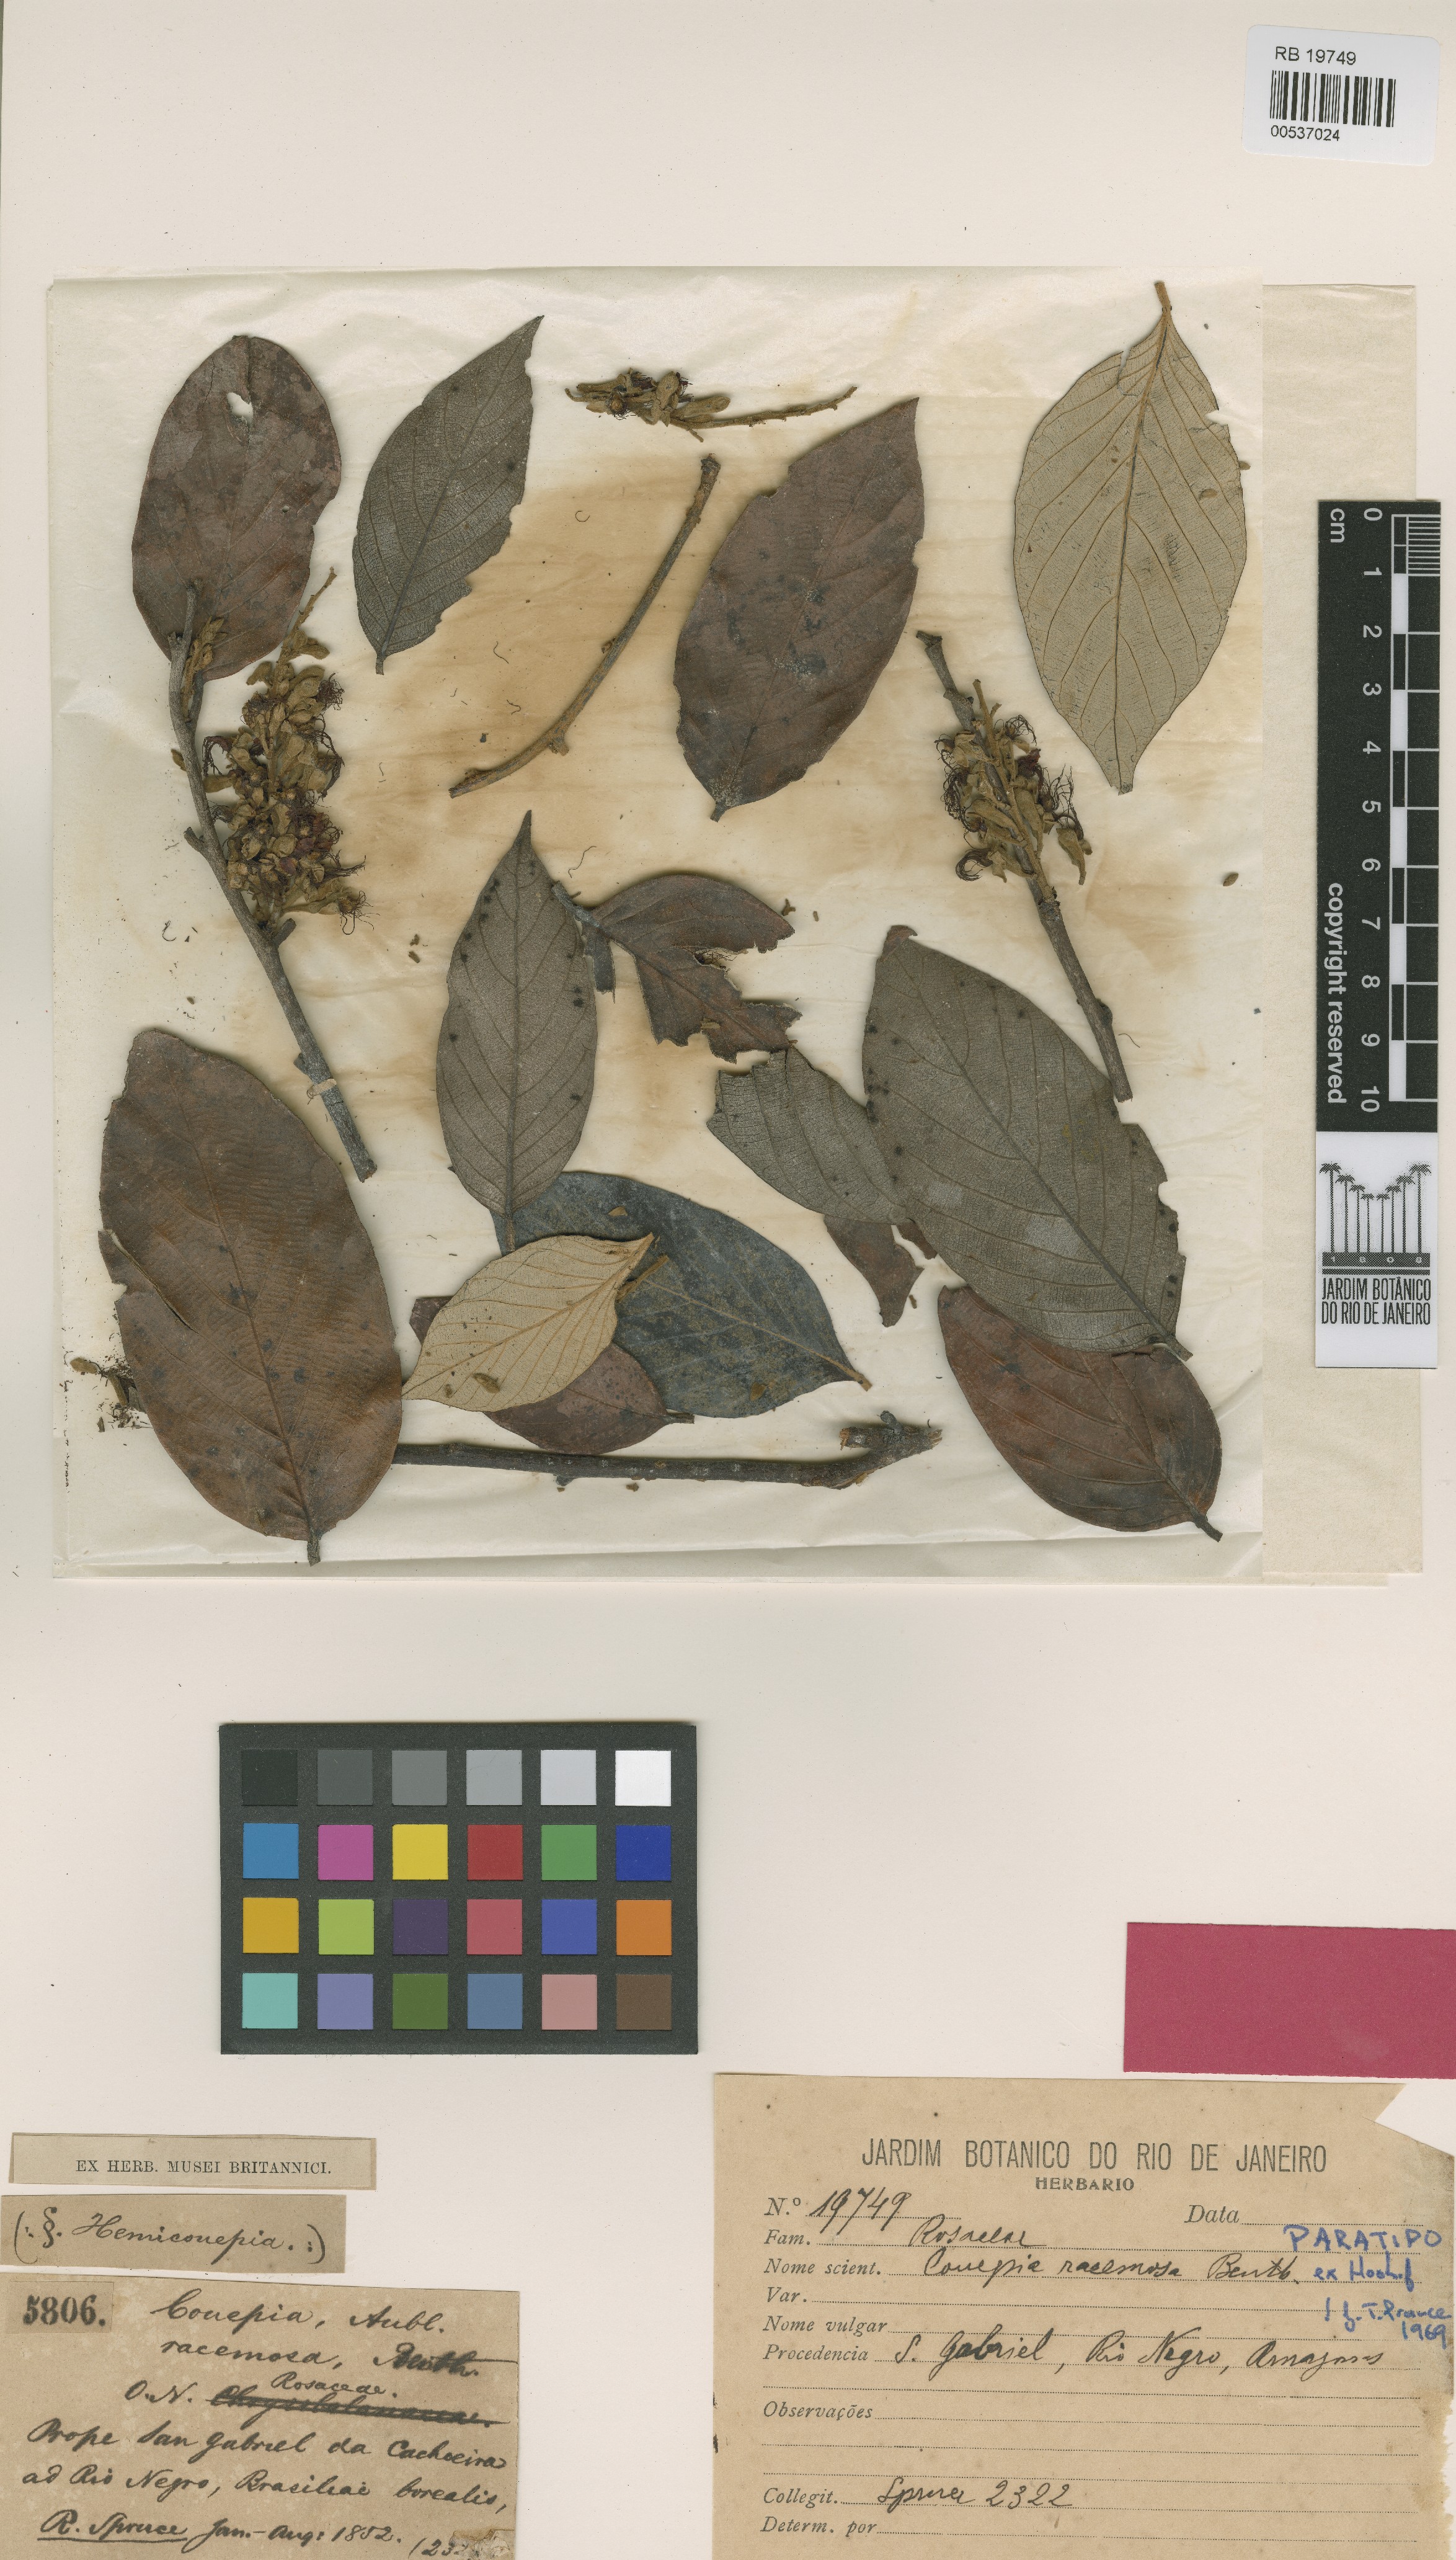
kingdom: Plantae
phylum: Tracheophyta
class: Magnoliopsida
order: Malpighiales
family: Chrysobalanaceae
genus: Gaulettia
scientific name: Gaulettia racemosa
